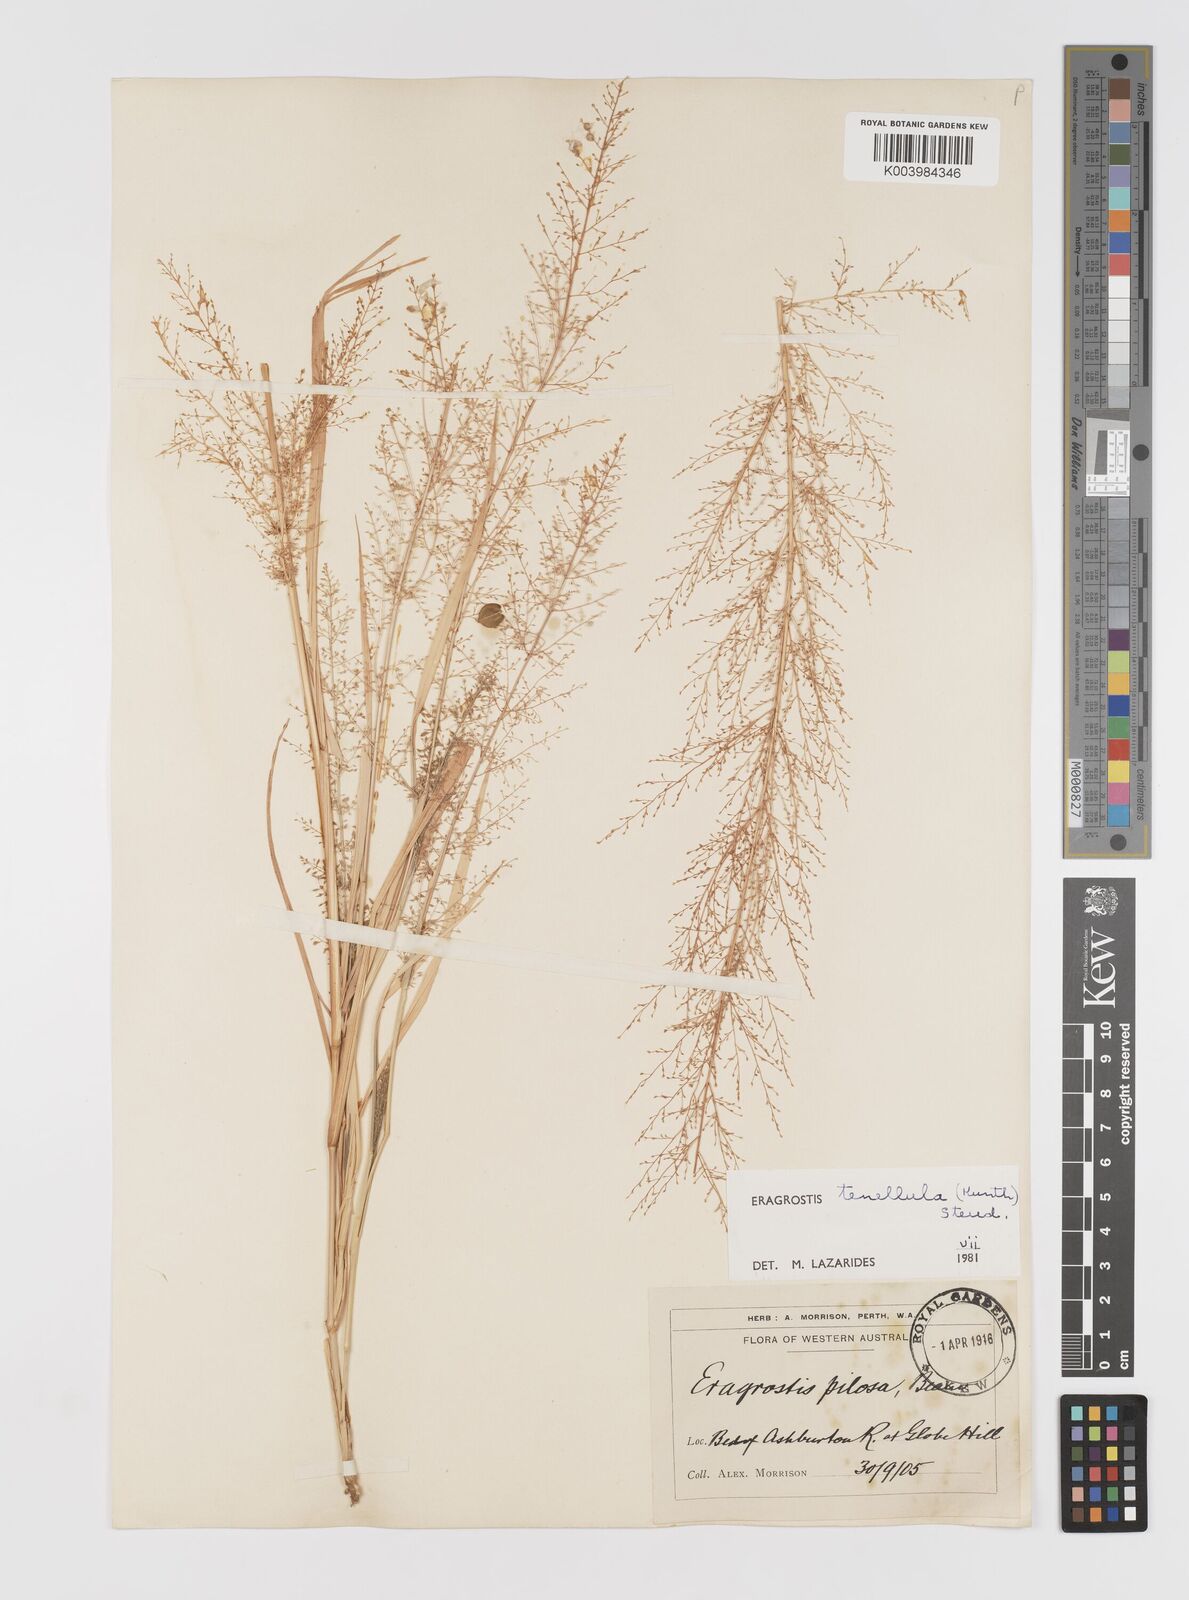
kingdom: Plantae
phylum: Tracheophyta
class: Liliopsida
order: Poales
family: Poaceae
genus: Eragrostis
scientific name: Eragrostis tenellula
